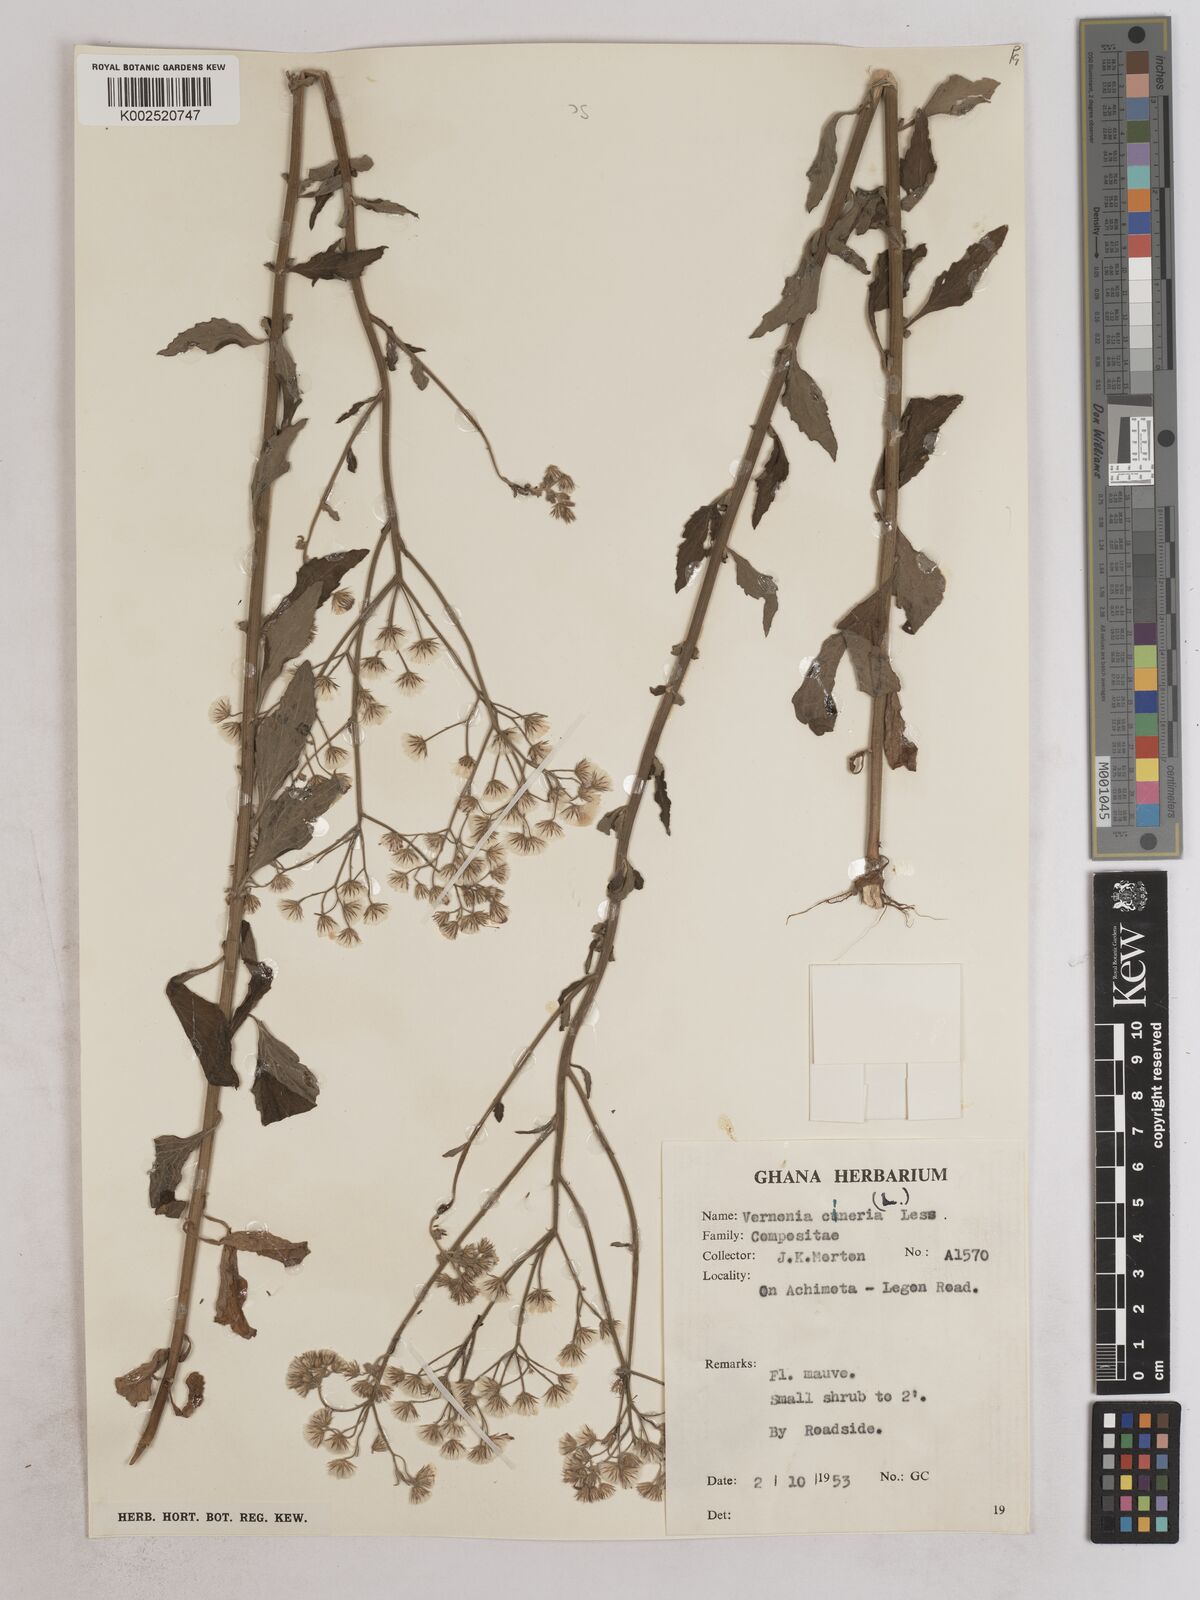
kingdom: Plantae
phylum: Tracheophyta
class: Magnoliopsida
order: Asterales
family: Asteraceae
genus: Cyanthillium
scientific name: Cyanthillium cinereum
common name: Little ironweed
